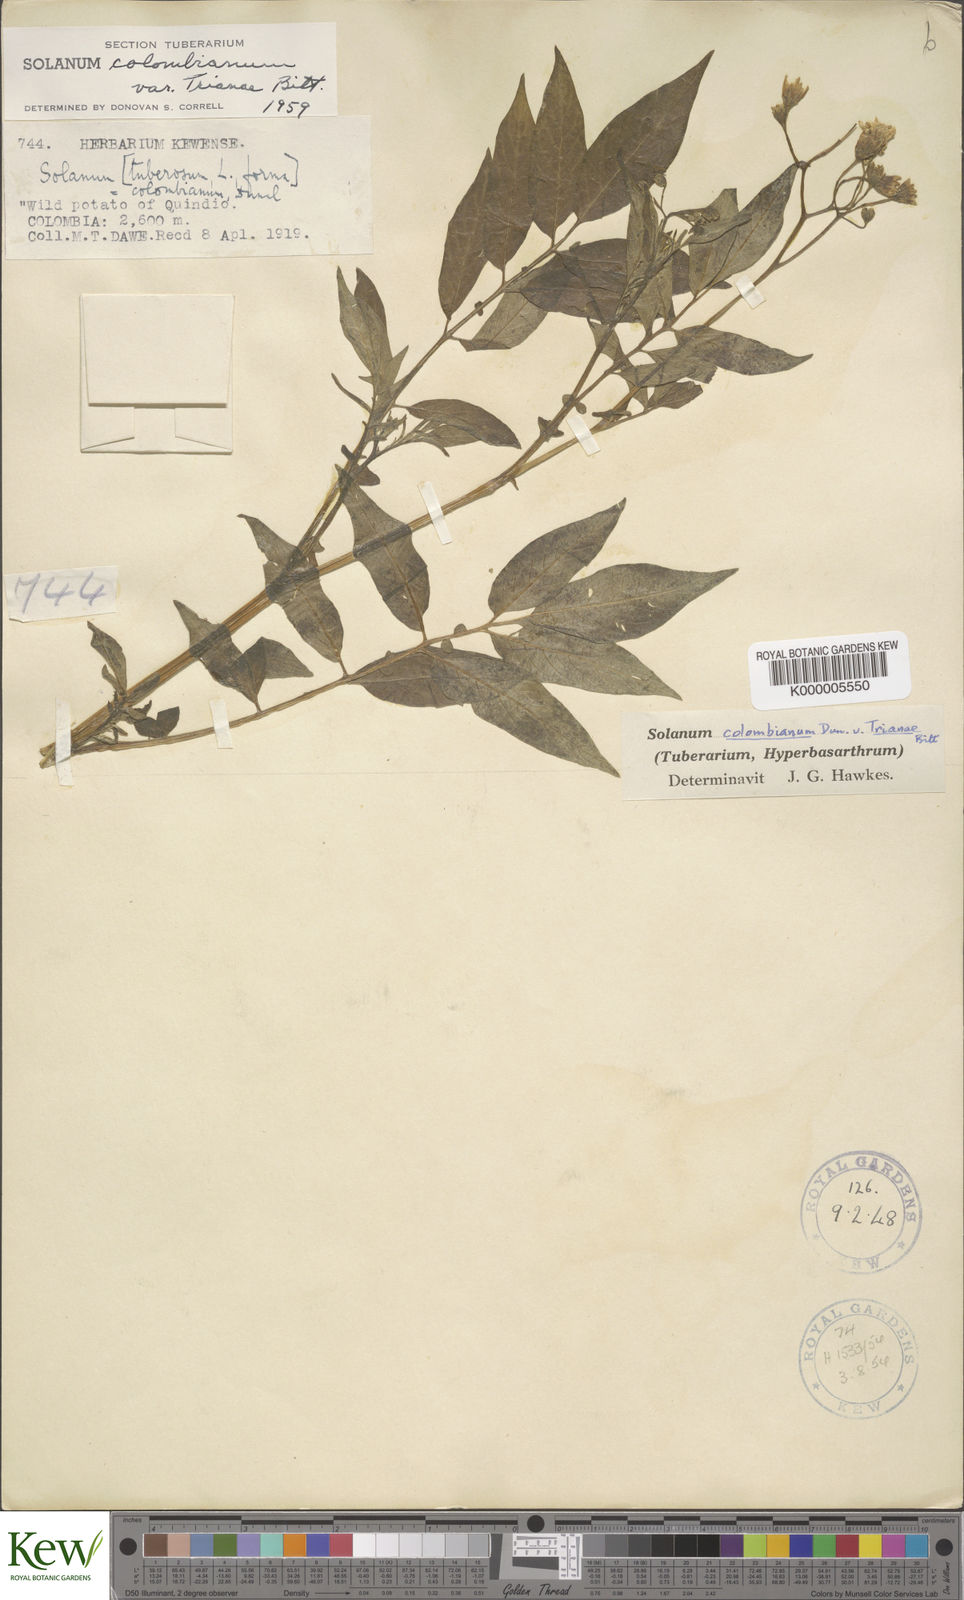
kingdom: Plantae
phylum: Tracheophyta
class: Magnoliopsida
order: Solanales
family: Solanaceae
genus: Solanum
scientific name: Solanum colombianum
